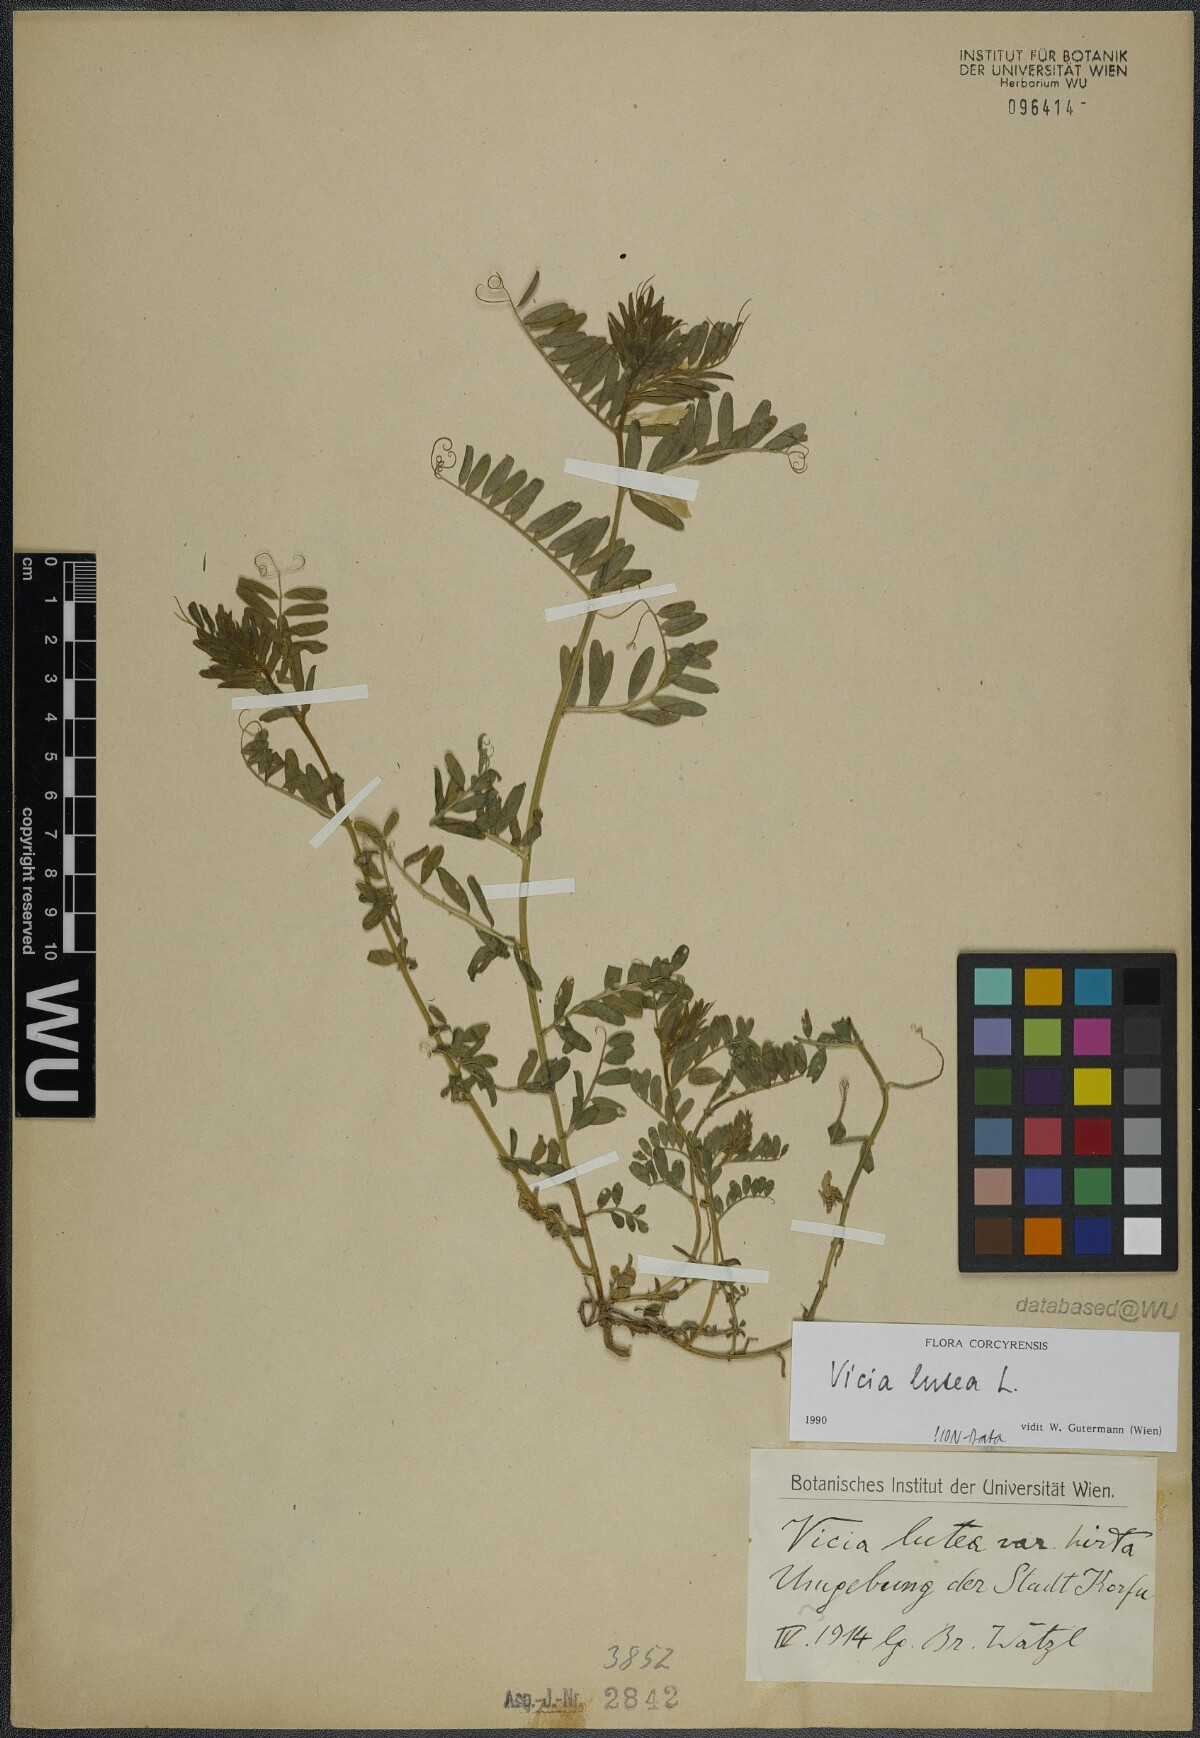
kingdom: Plantae
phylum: Tracheophyta
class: Magnoliopsida
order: Fabales
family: Fabaceae
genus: Vicia
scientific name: Vicia lutea
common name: Smooth yellow vetch
